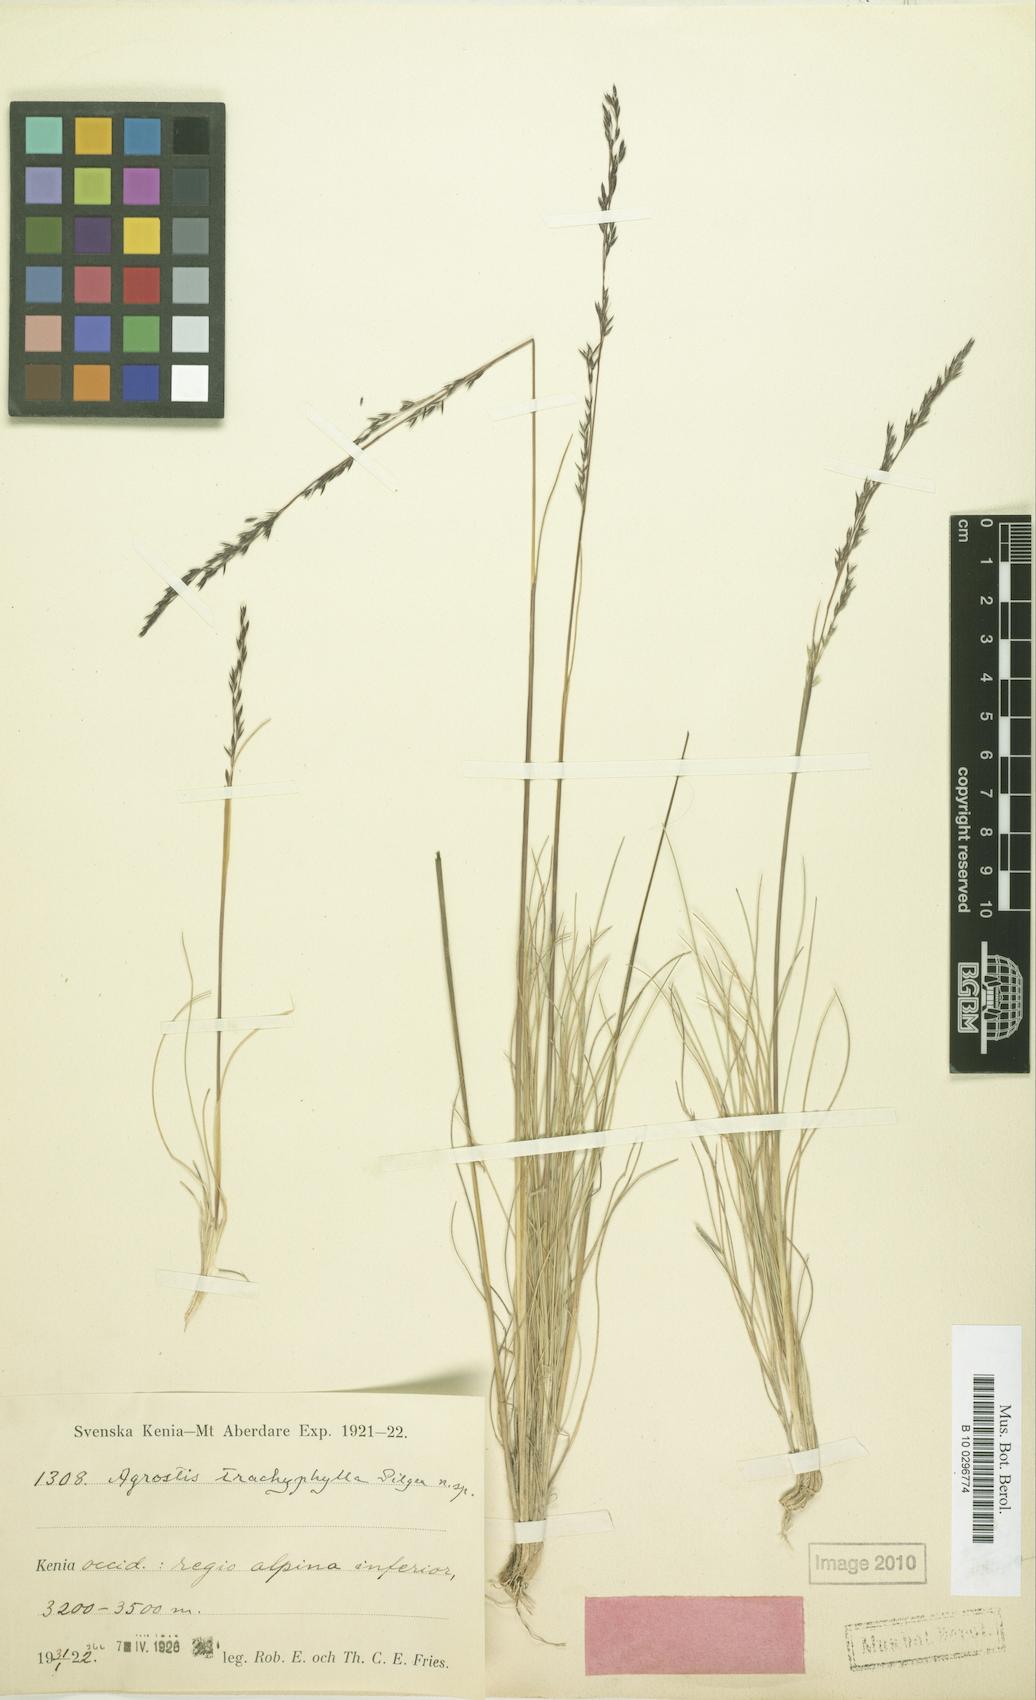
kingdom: Plantae
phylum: Tracheophyta
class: Liliopsida
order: Poales
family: Poaceae
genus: Agrostis
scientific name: Agrostis trachyphylla
